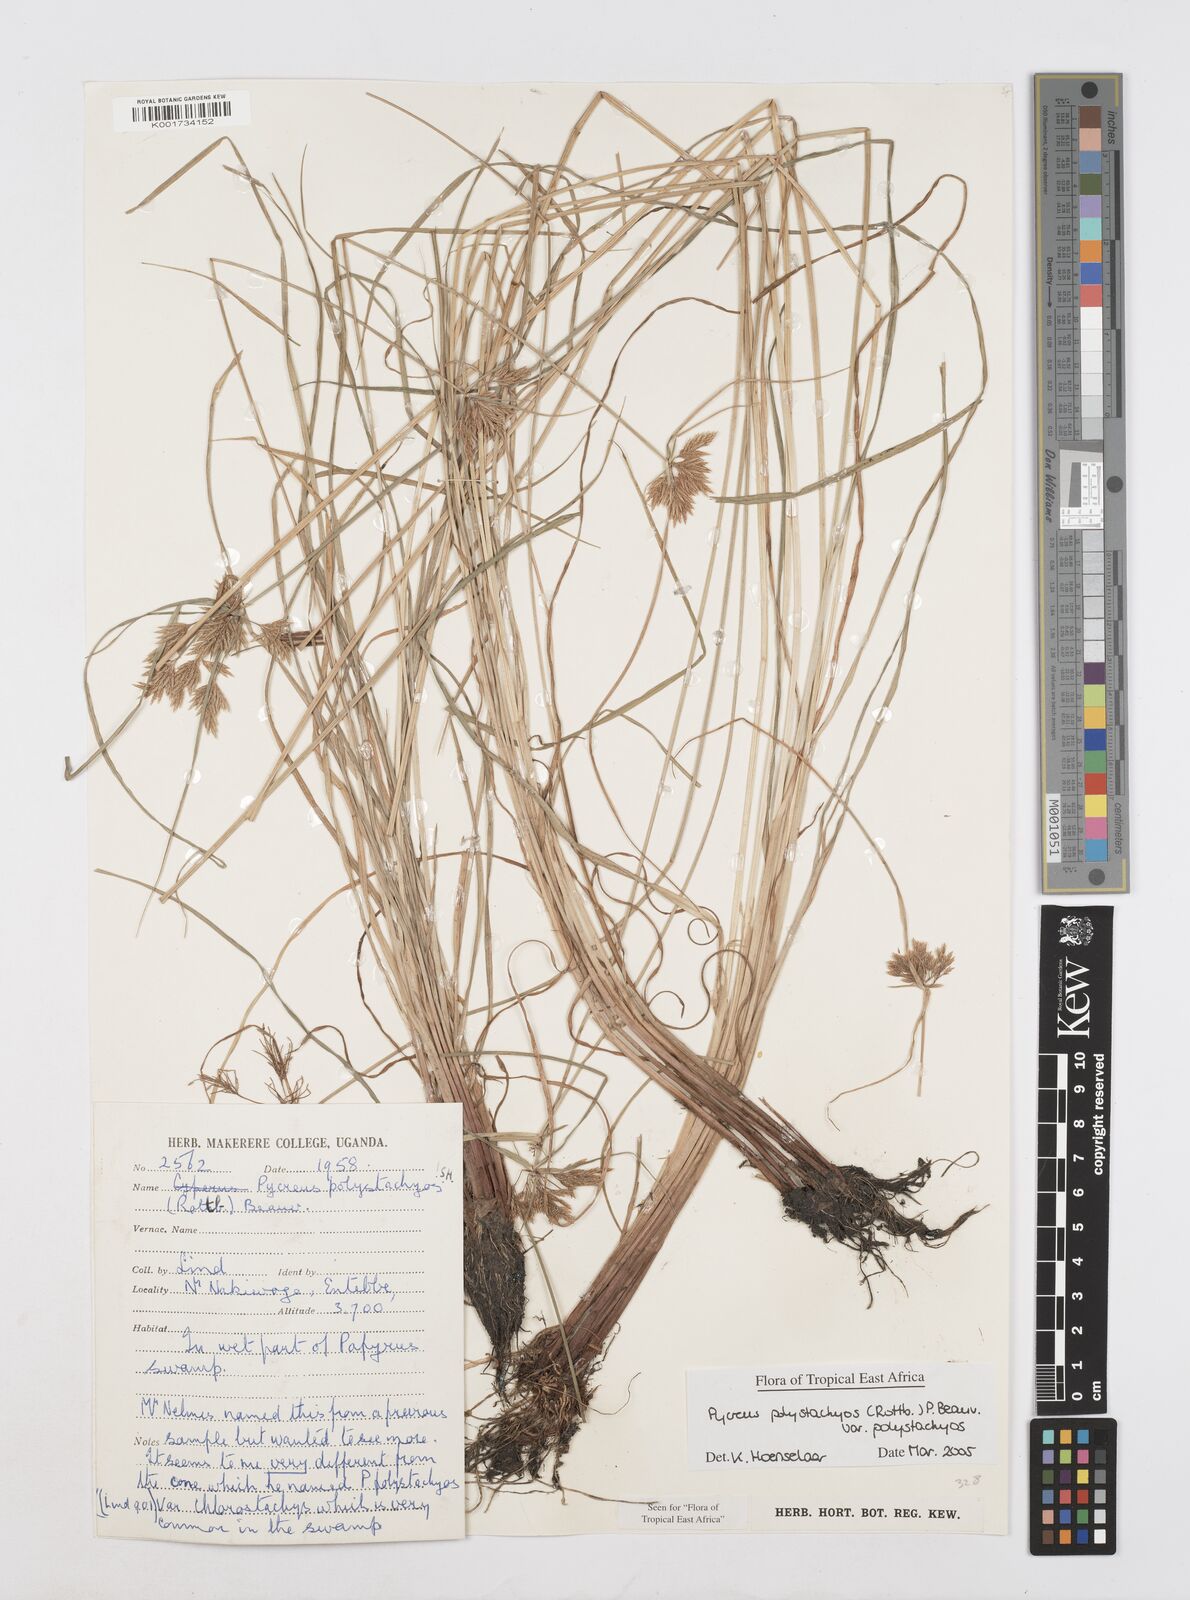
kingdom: Plantae
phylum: Tracheophyta
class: Liliopsida
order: Poales
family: Cyperaceae
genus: Cyperus
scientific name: Cyperus polystachyos
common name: Bunchy flat sedge
